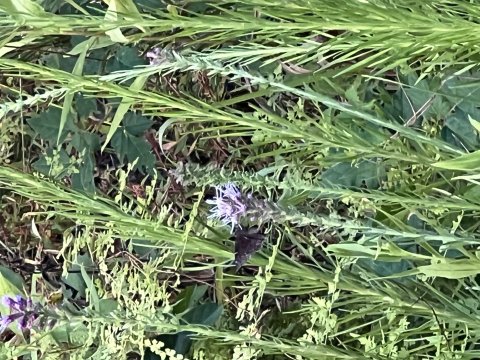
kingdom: Animalia
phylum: Arthropoda
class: Insecta
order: Lepidoptera
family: Hesperiidae
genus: Autochton
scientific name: Autochton
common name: Northern Cloudywing
